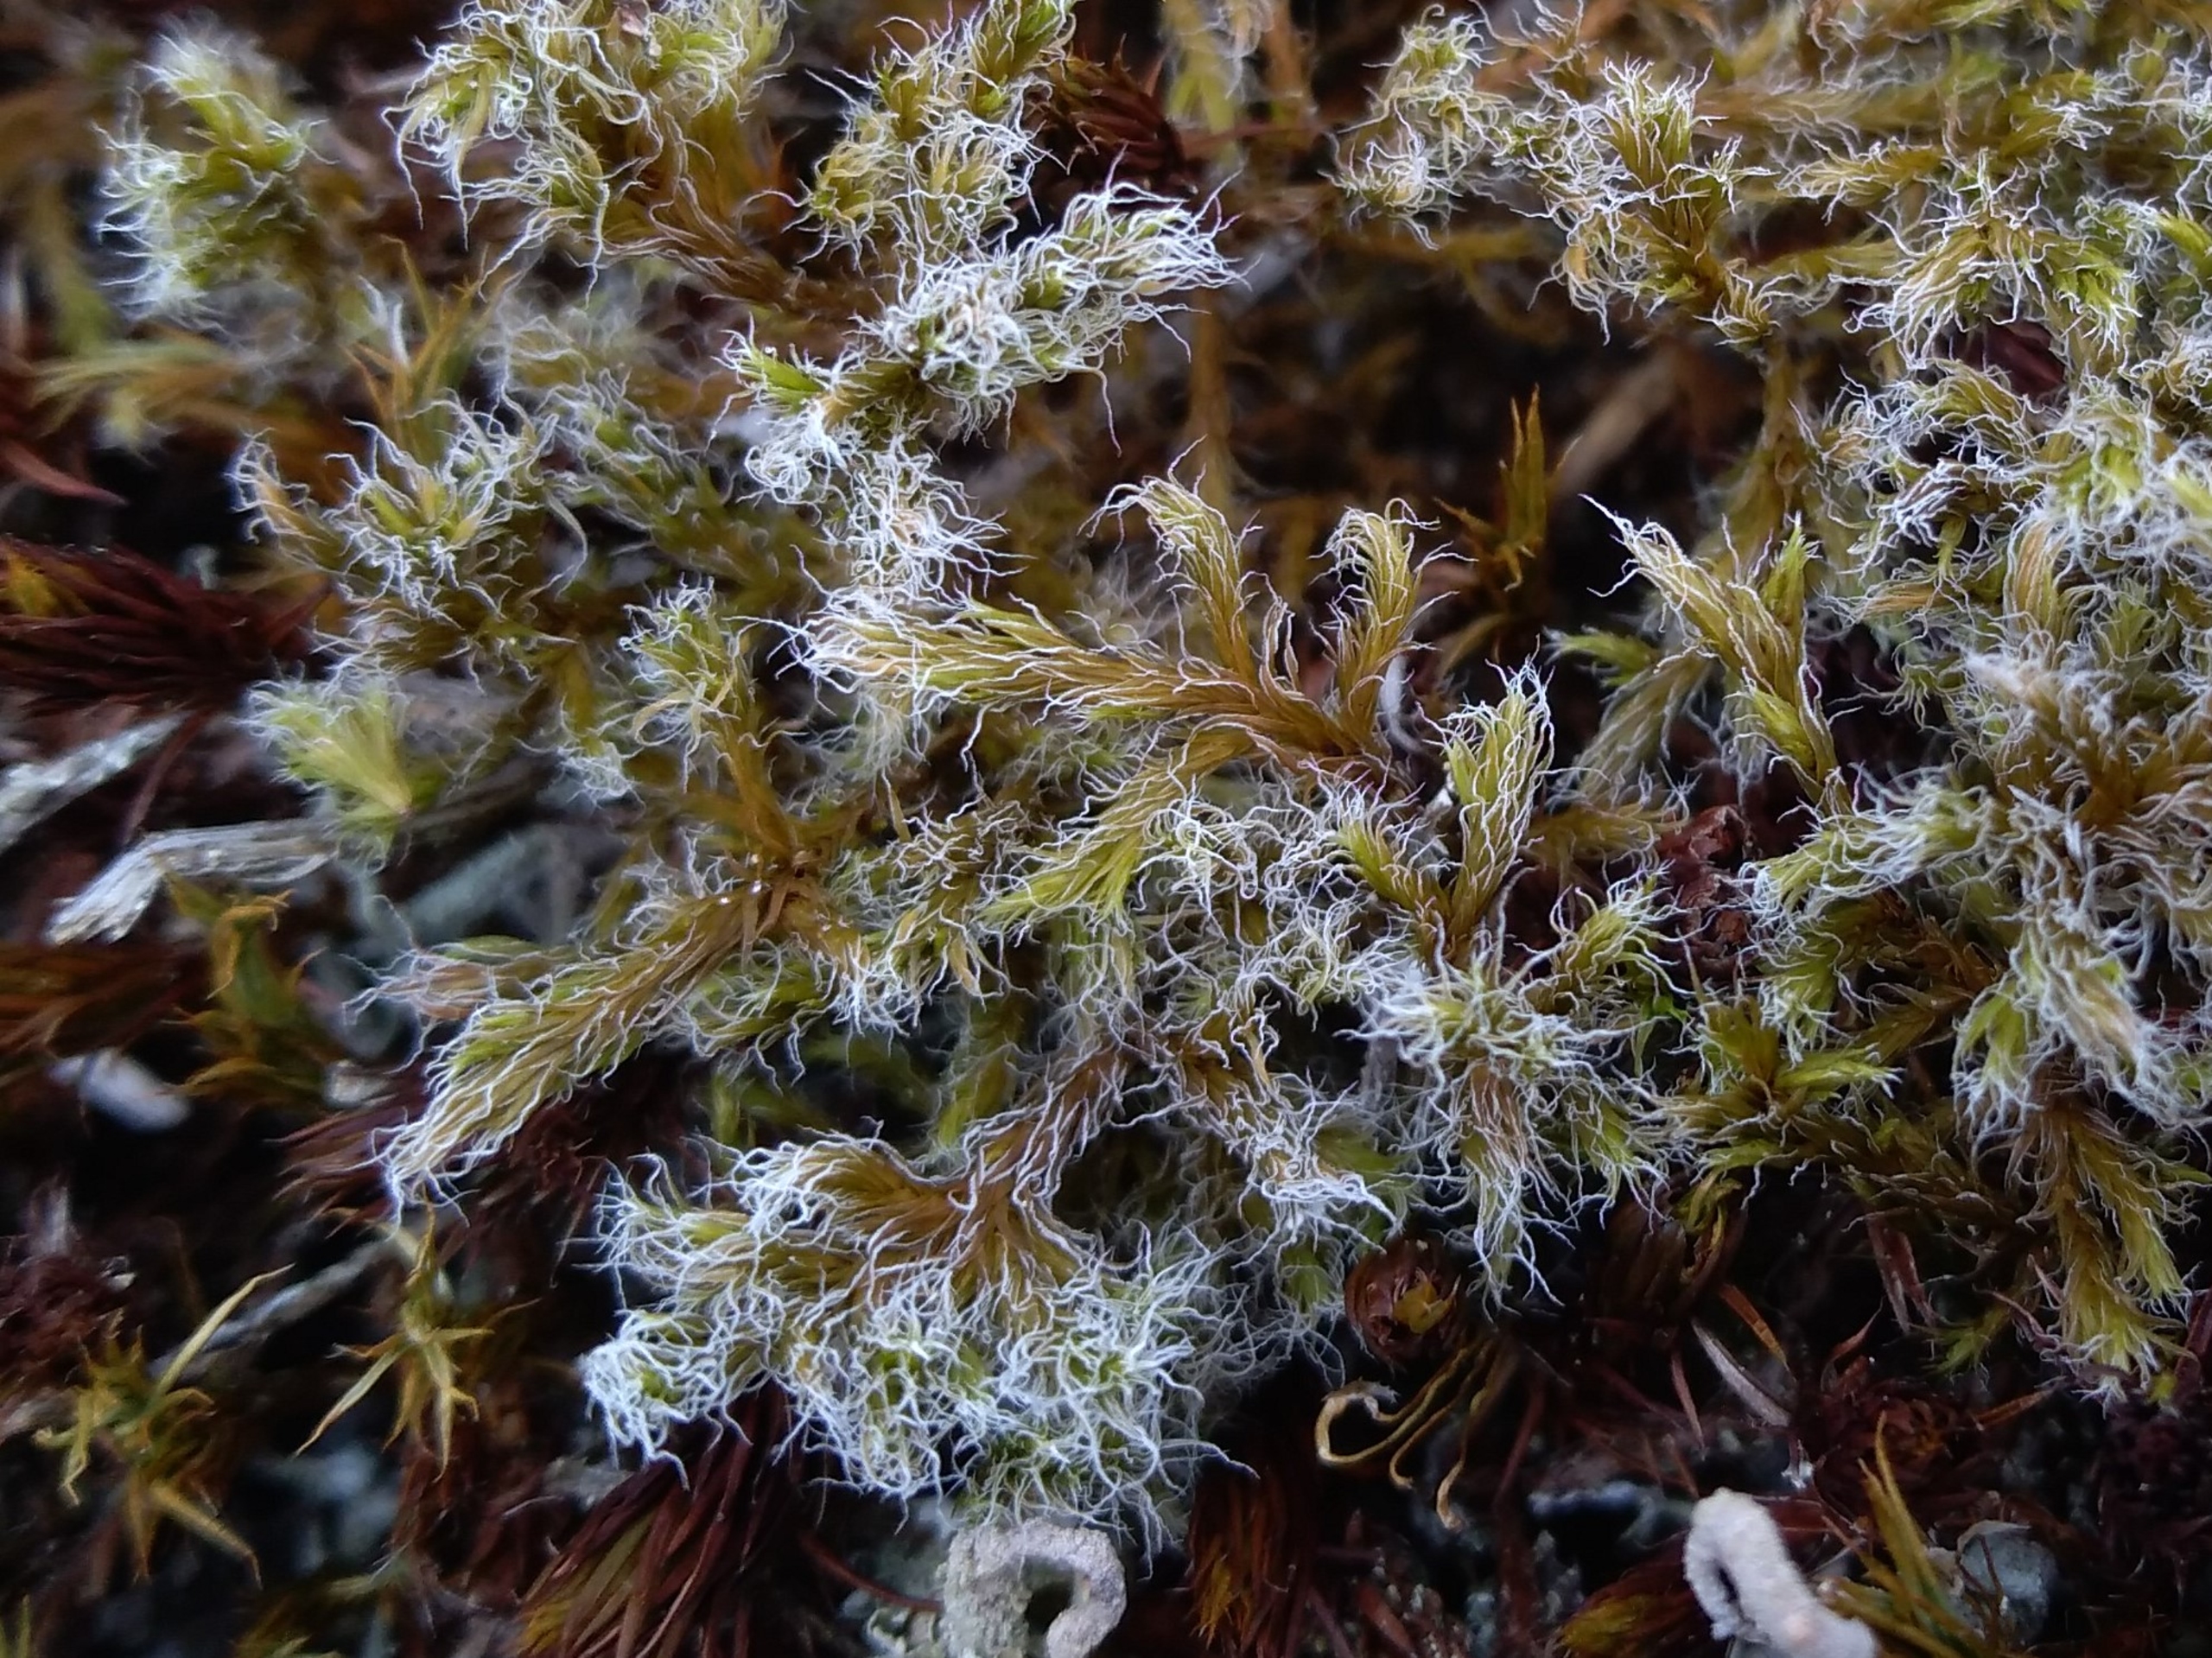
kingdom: Plantae
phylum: Bryophyta
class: Bryopsida
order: Grimmiales
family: Grimmiaceae
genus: Racomitrium
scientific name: Racomitrium lanuginosum
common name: Stor børstemos
